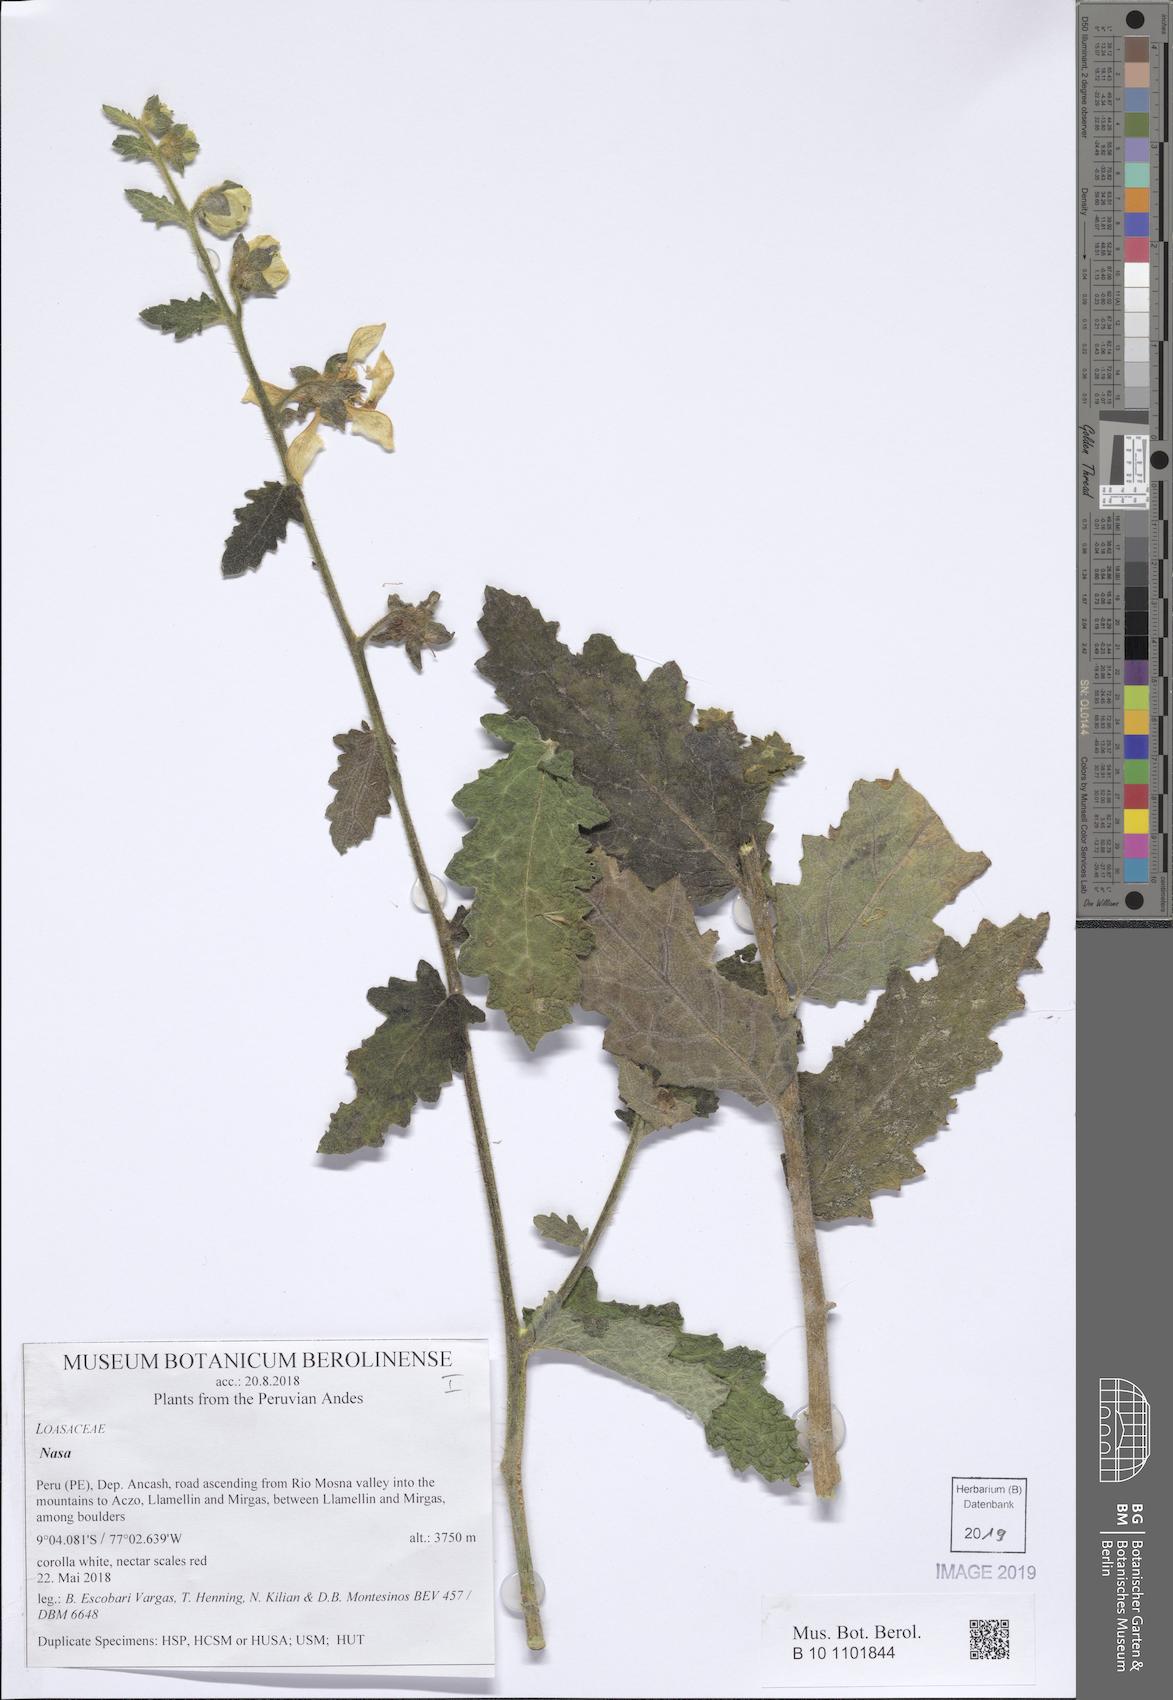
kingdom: Plantae
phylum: Tracheophyta
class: Magnoliopsida
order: Cornales
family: Loasaceae
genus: Nasa
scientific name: Nasa carunculata
